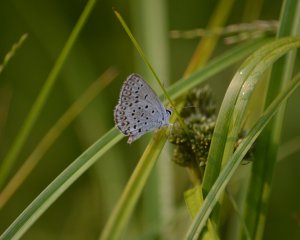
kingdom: Animalia
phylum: Arthropoda
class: Insecta
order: Lepidoptera
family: Lycaenidae
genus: Lycaeides
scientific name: Lycaeides idas
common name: Northern Blue
